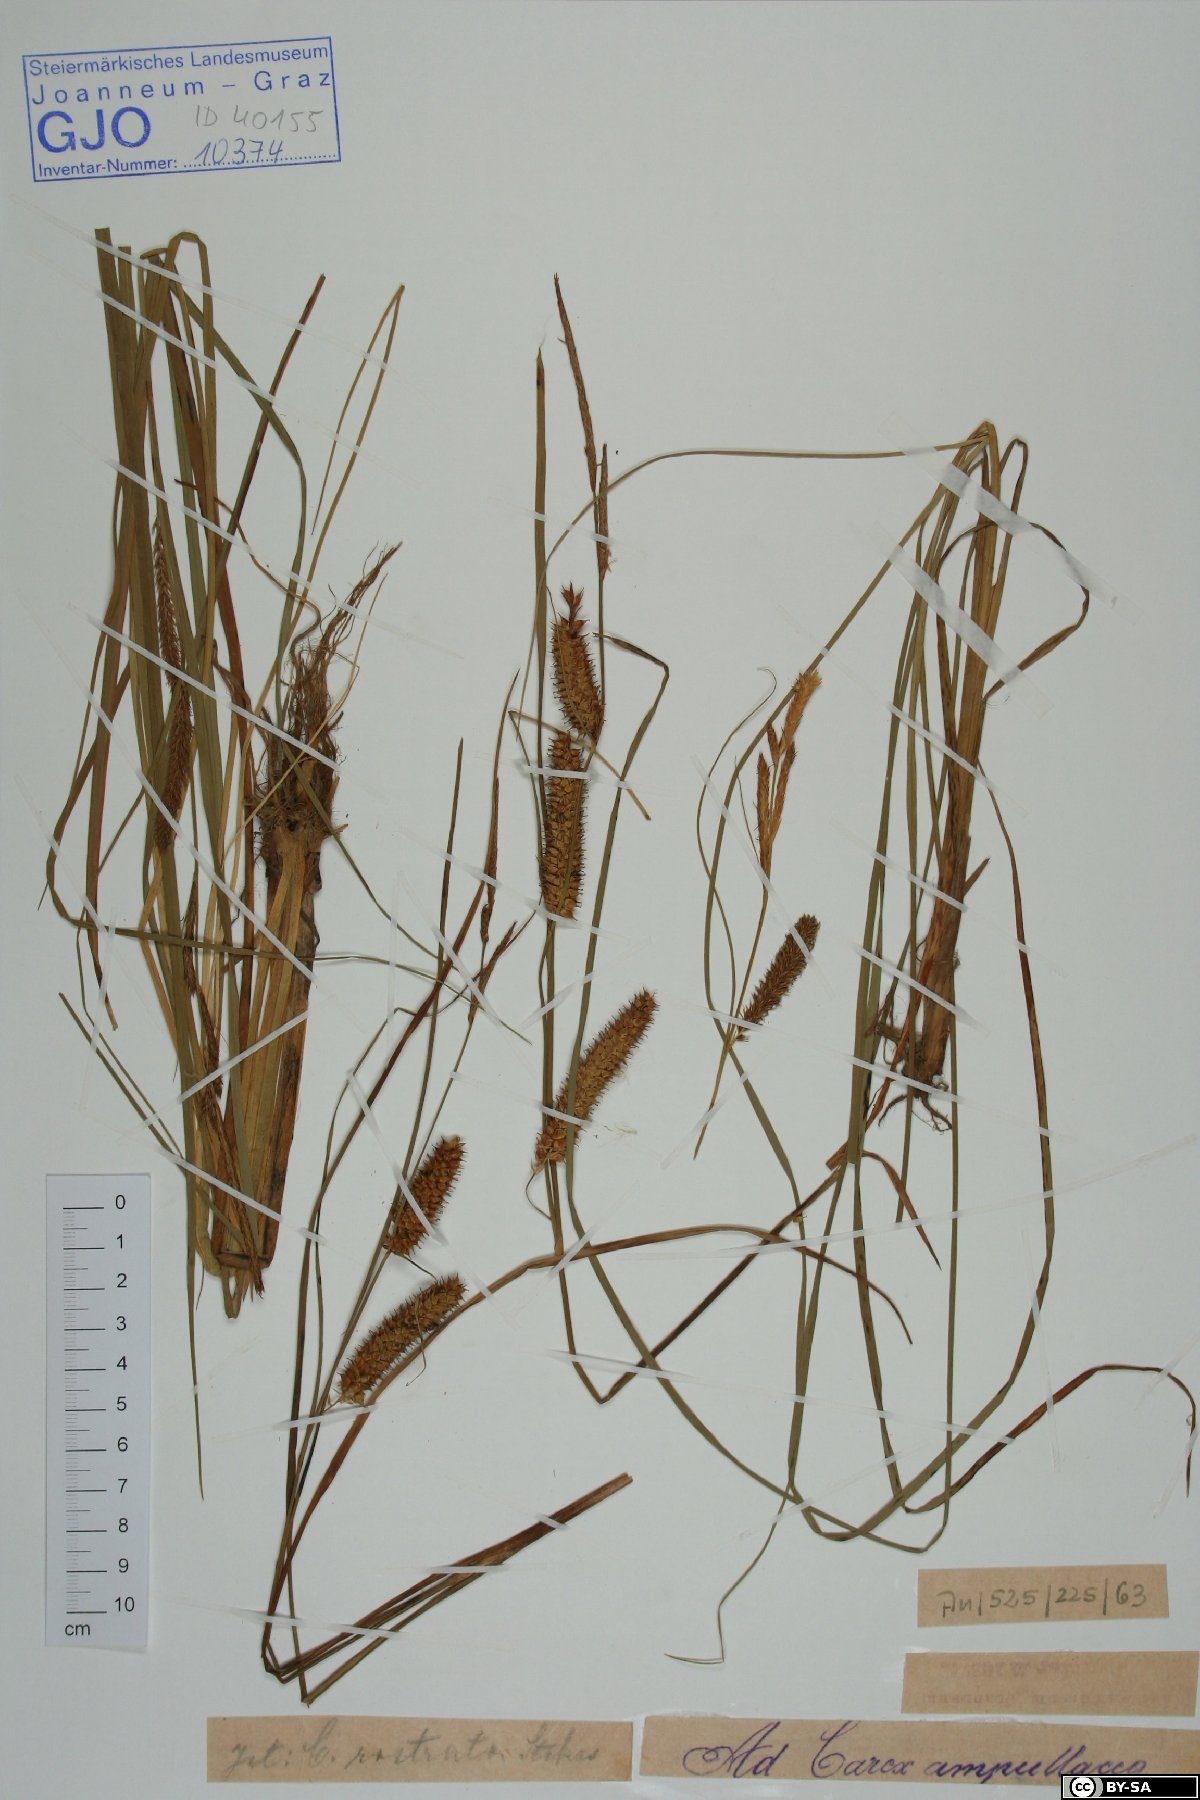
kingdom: Plantae
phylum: Tracheophyta
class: Liliopsida
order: Poales
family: Cyperaceae
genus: Carex
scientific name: Carex rostrata
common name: Bottle sedge
